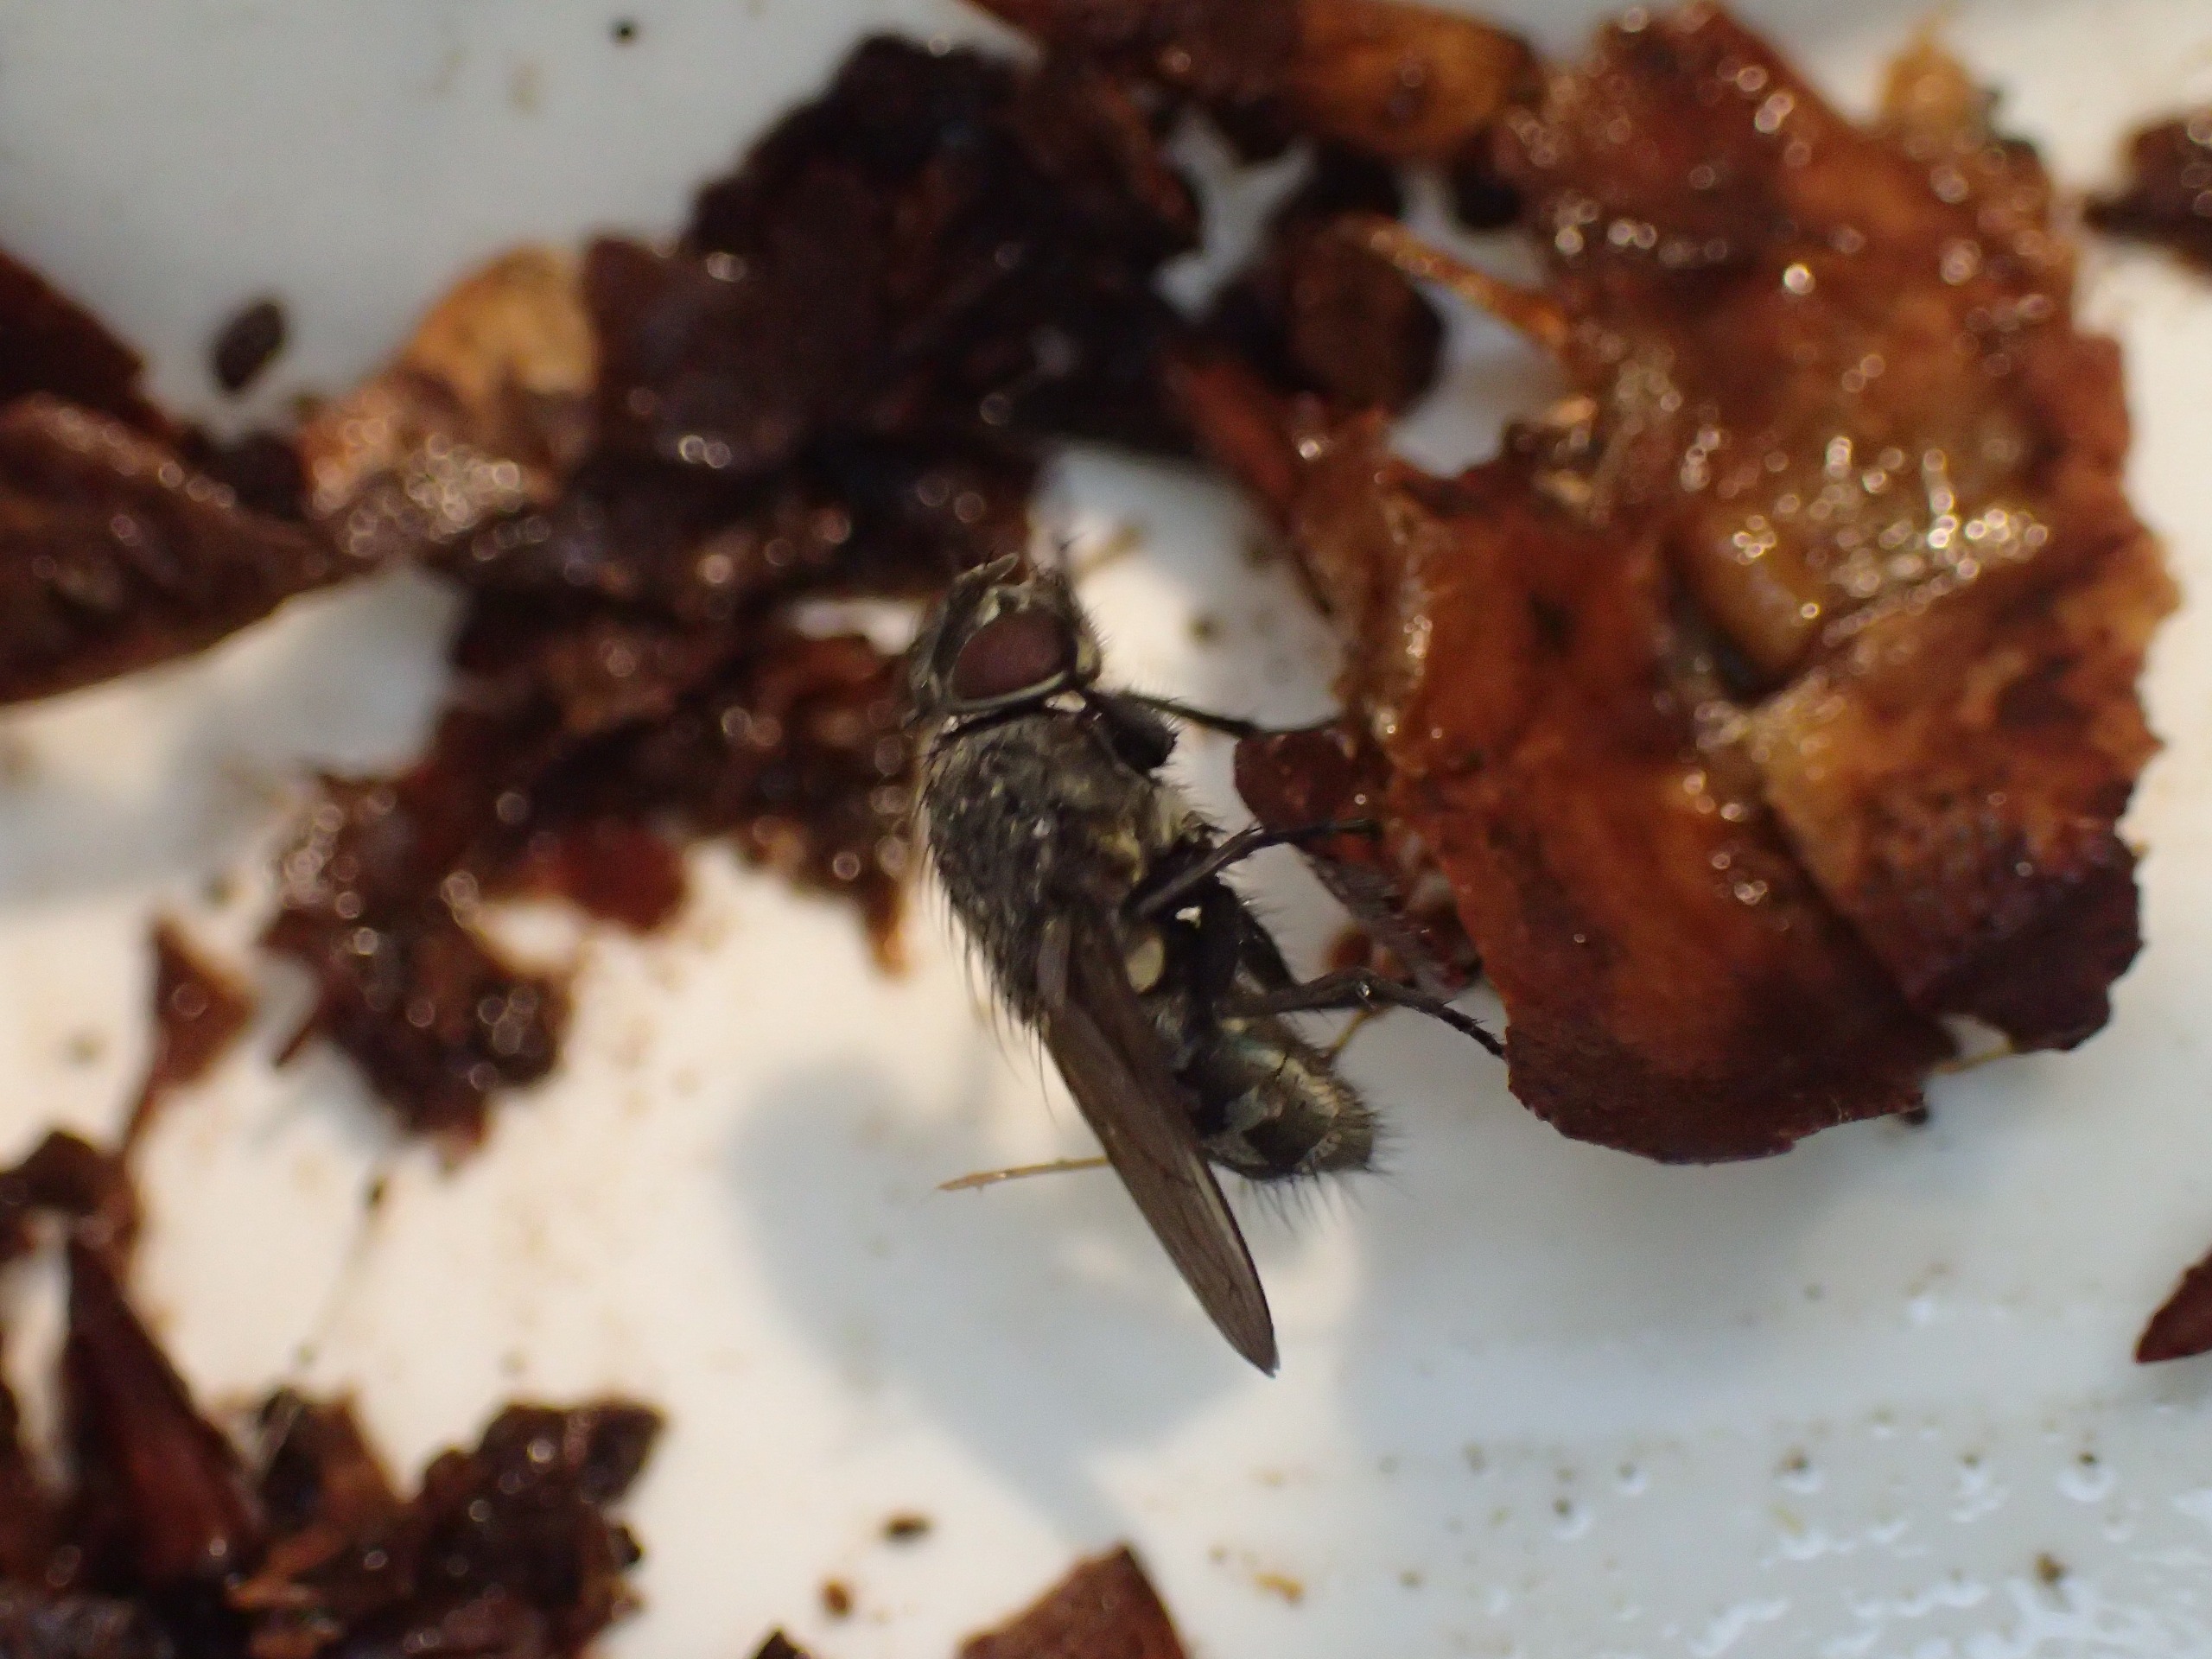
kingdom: Animalia
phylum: Arthropoda
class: Insecta
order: Diptera
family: Polleniidae
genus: Pollenia
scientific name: Pollenia
